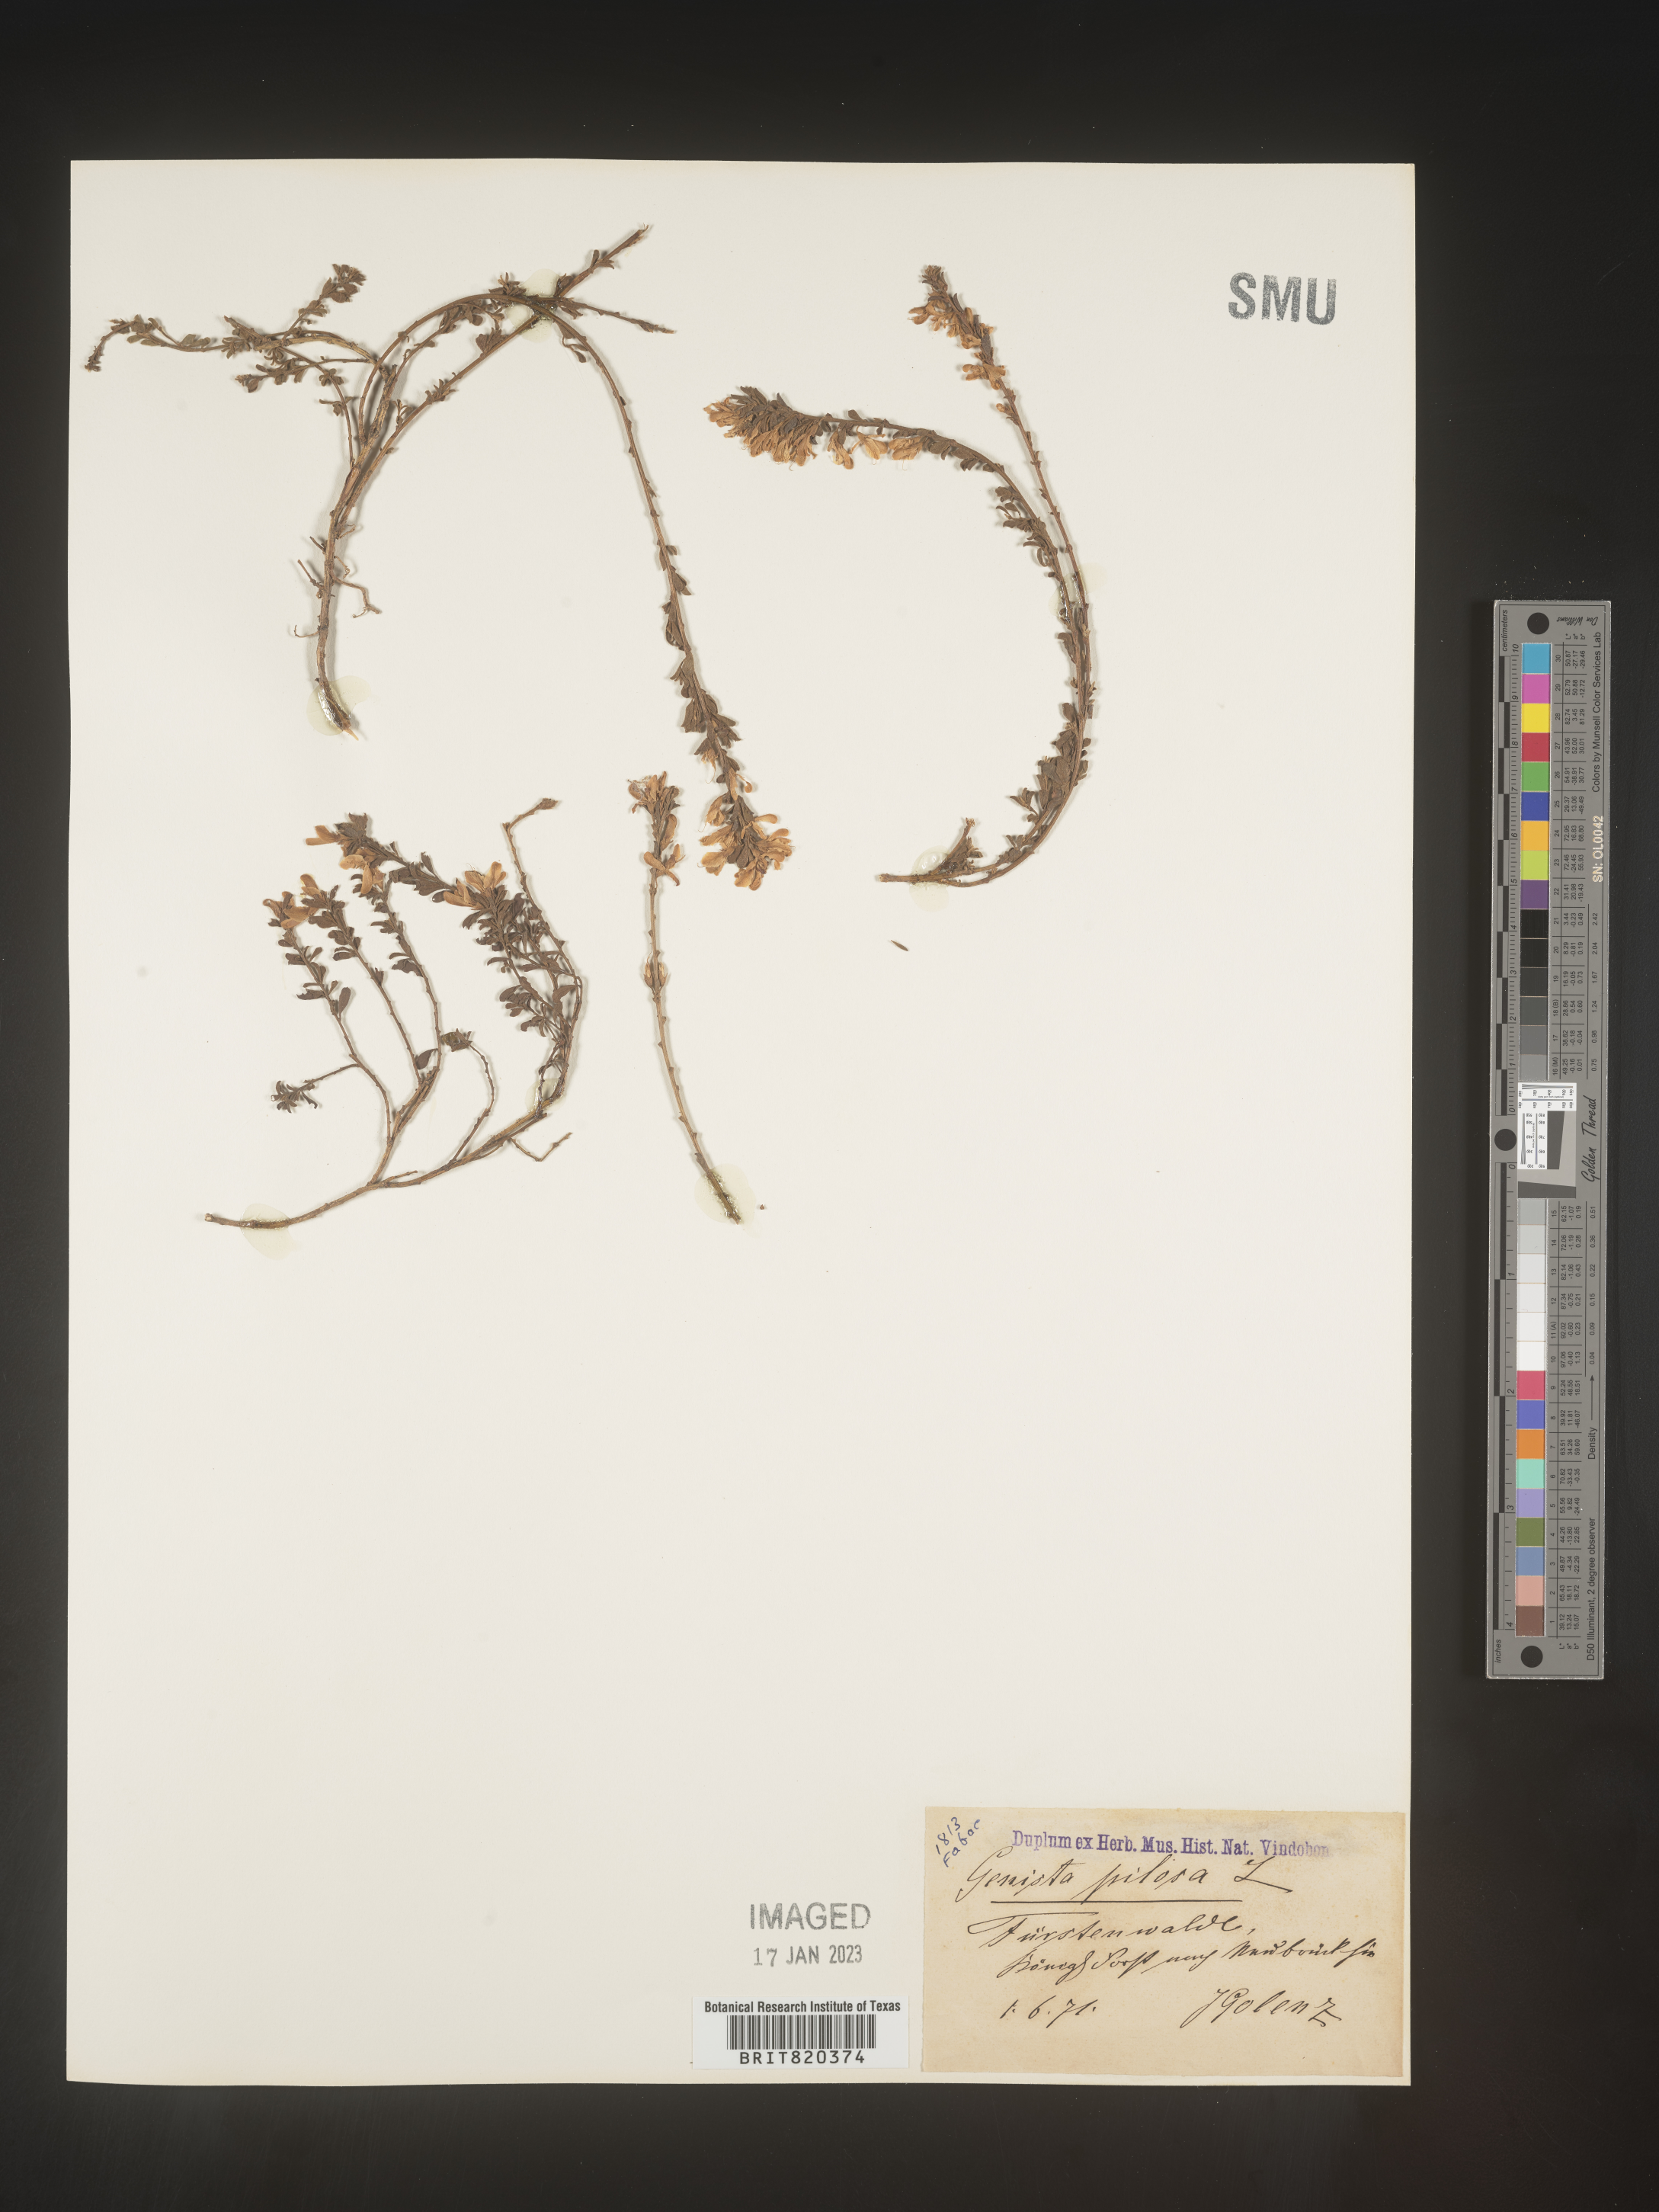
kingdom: Plantae
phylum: Tracheophyta
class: Magnoliopsida
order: Fabales
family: Fabaceae
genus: Genista
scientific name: Genista
